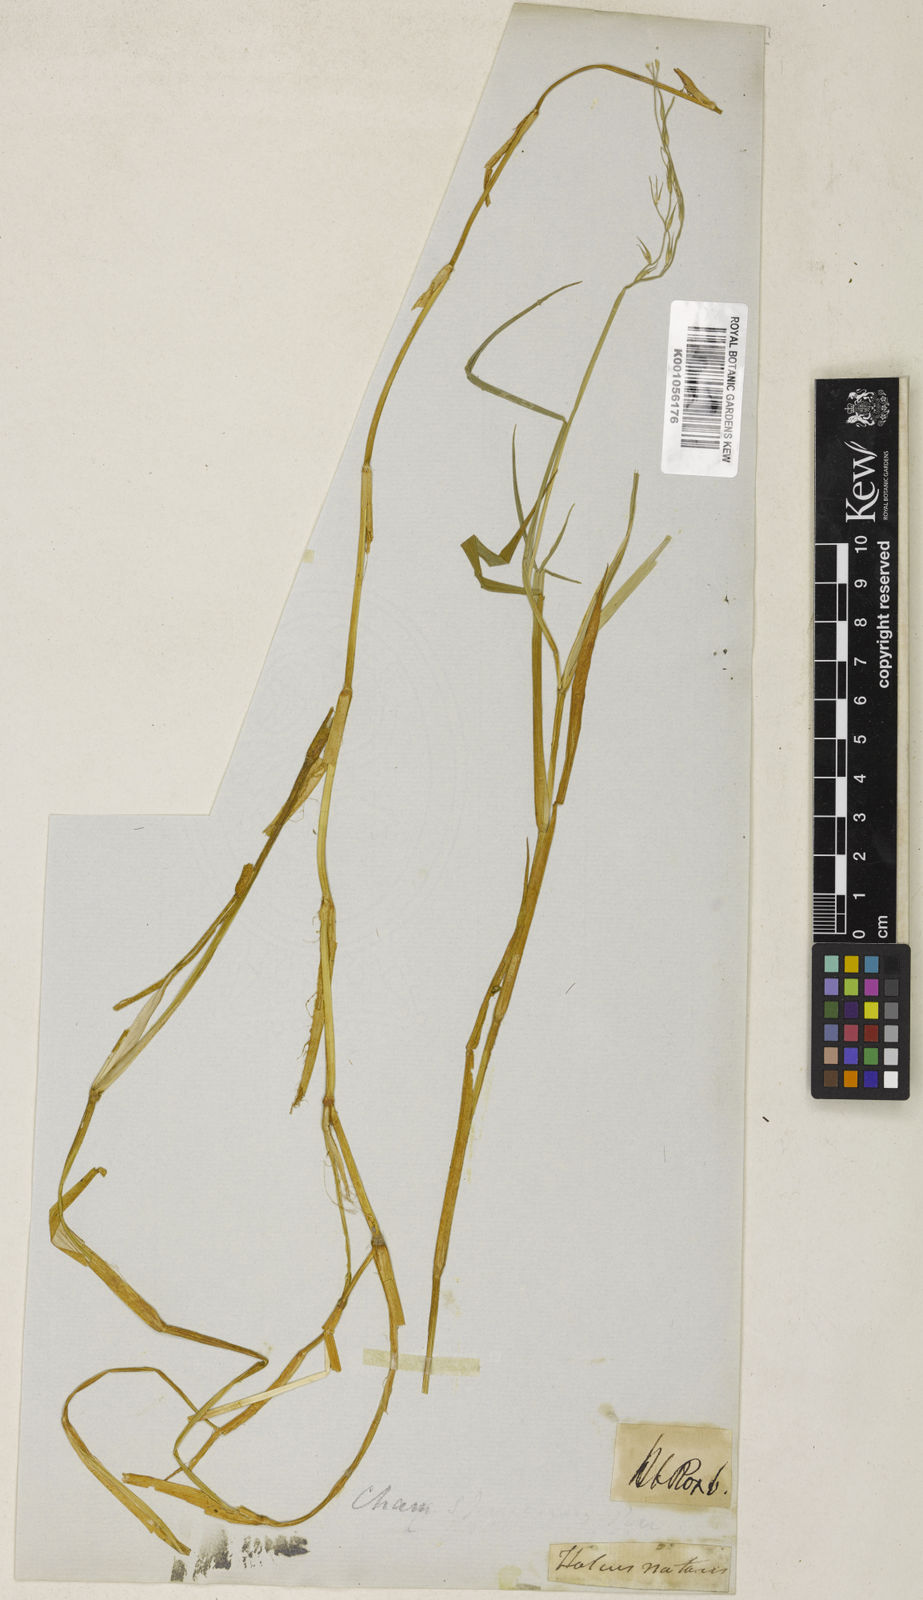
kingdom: Plantae
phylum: Tracheophyta
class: Liliopsida
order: Poales
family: Poaceae
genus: Pseudoraphis
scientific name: Pseudoraphis brunoniana
